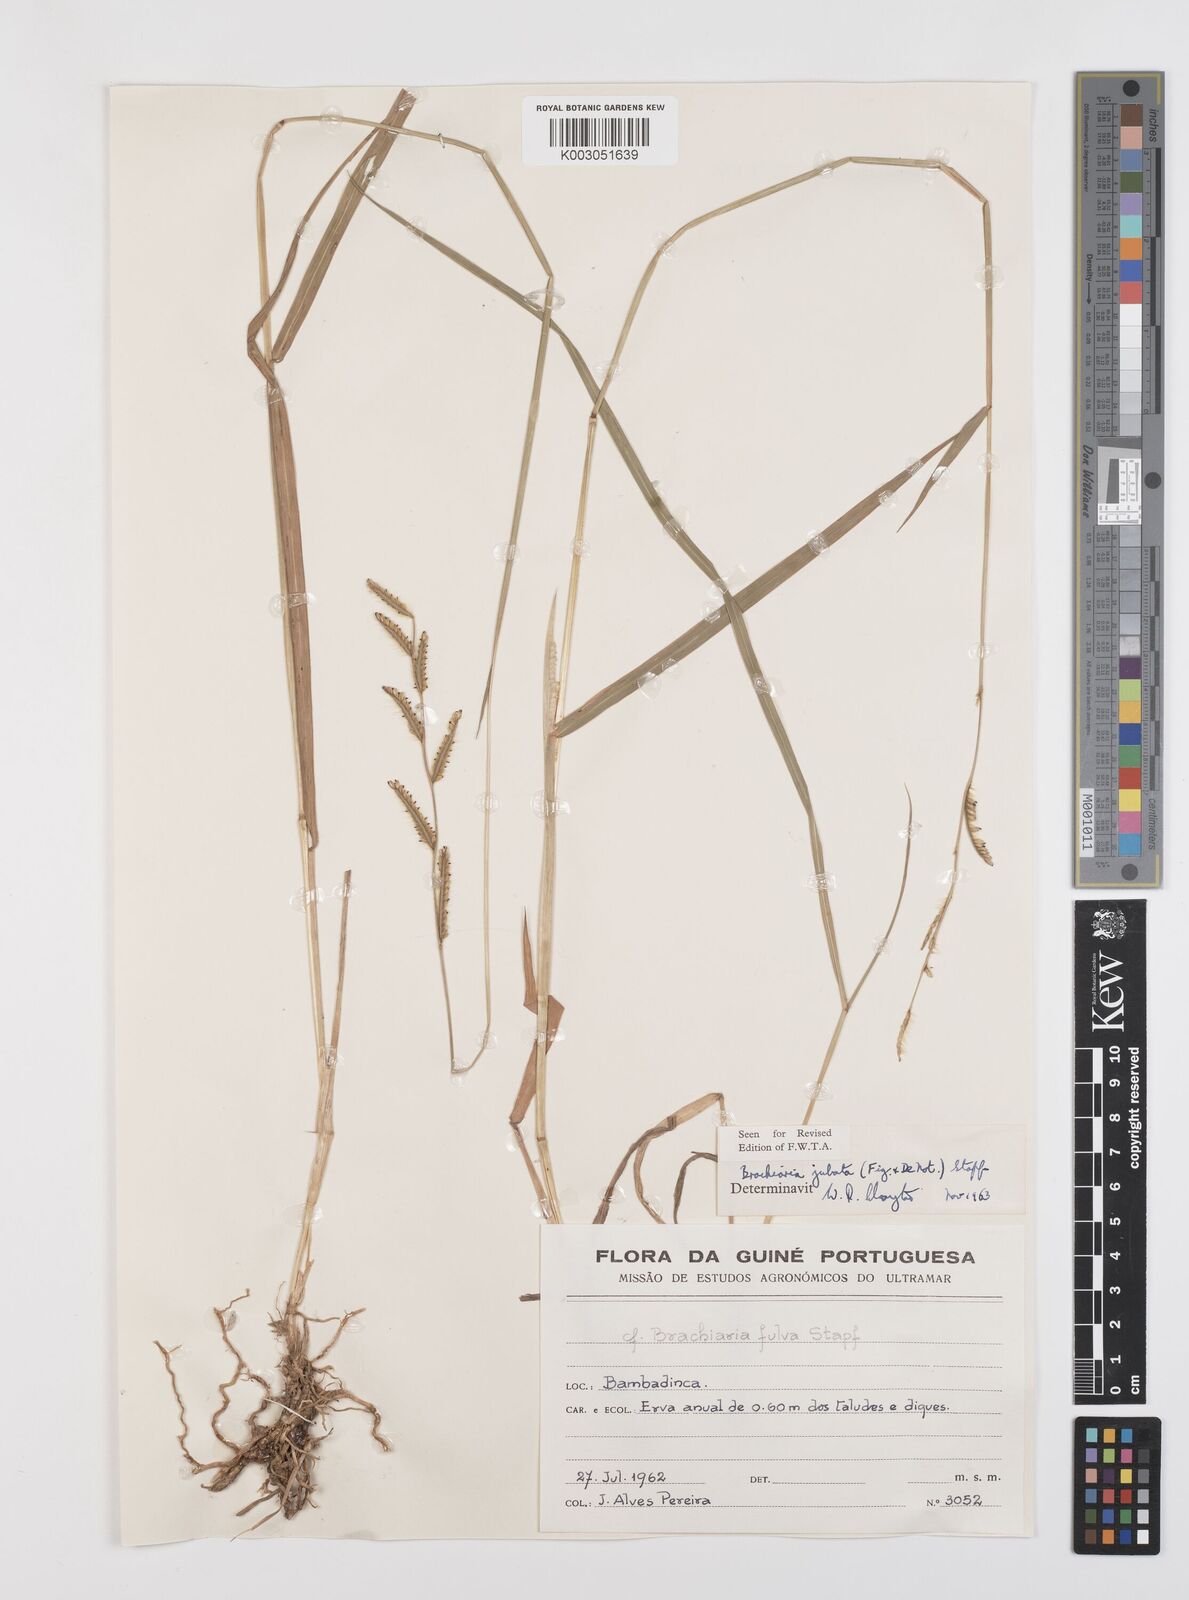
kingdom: Plantae
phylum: Tracheophyta
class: Liliopsida
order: Poales
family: Poaceae
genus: Urochloa
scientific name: Urochloa jubata
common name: Buffalograss
